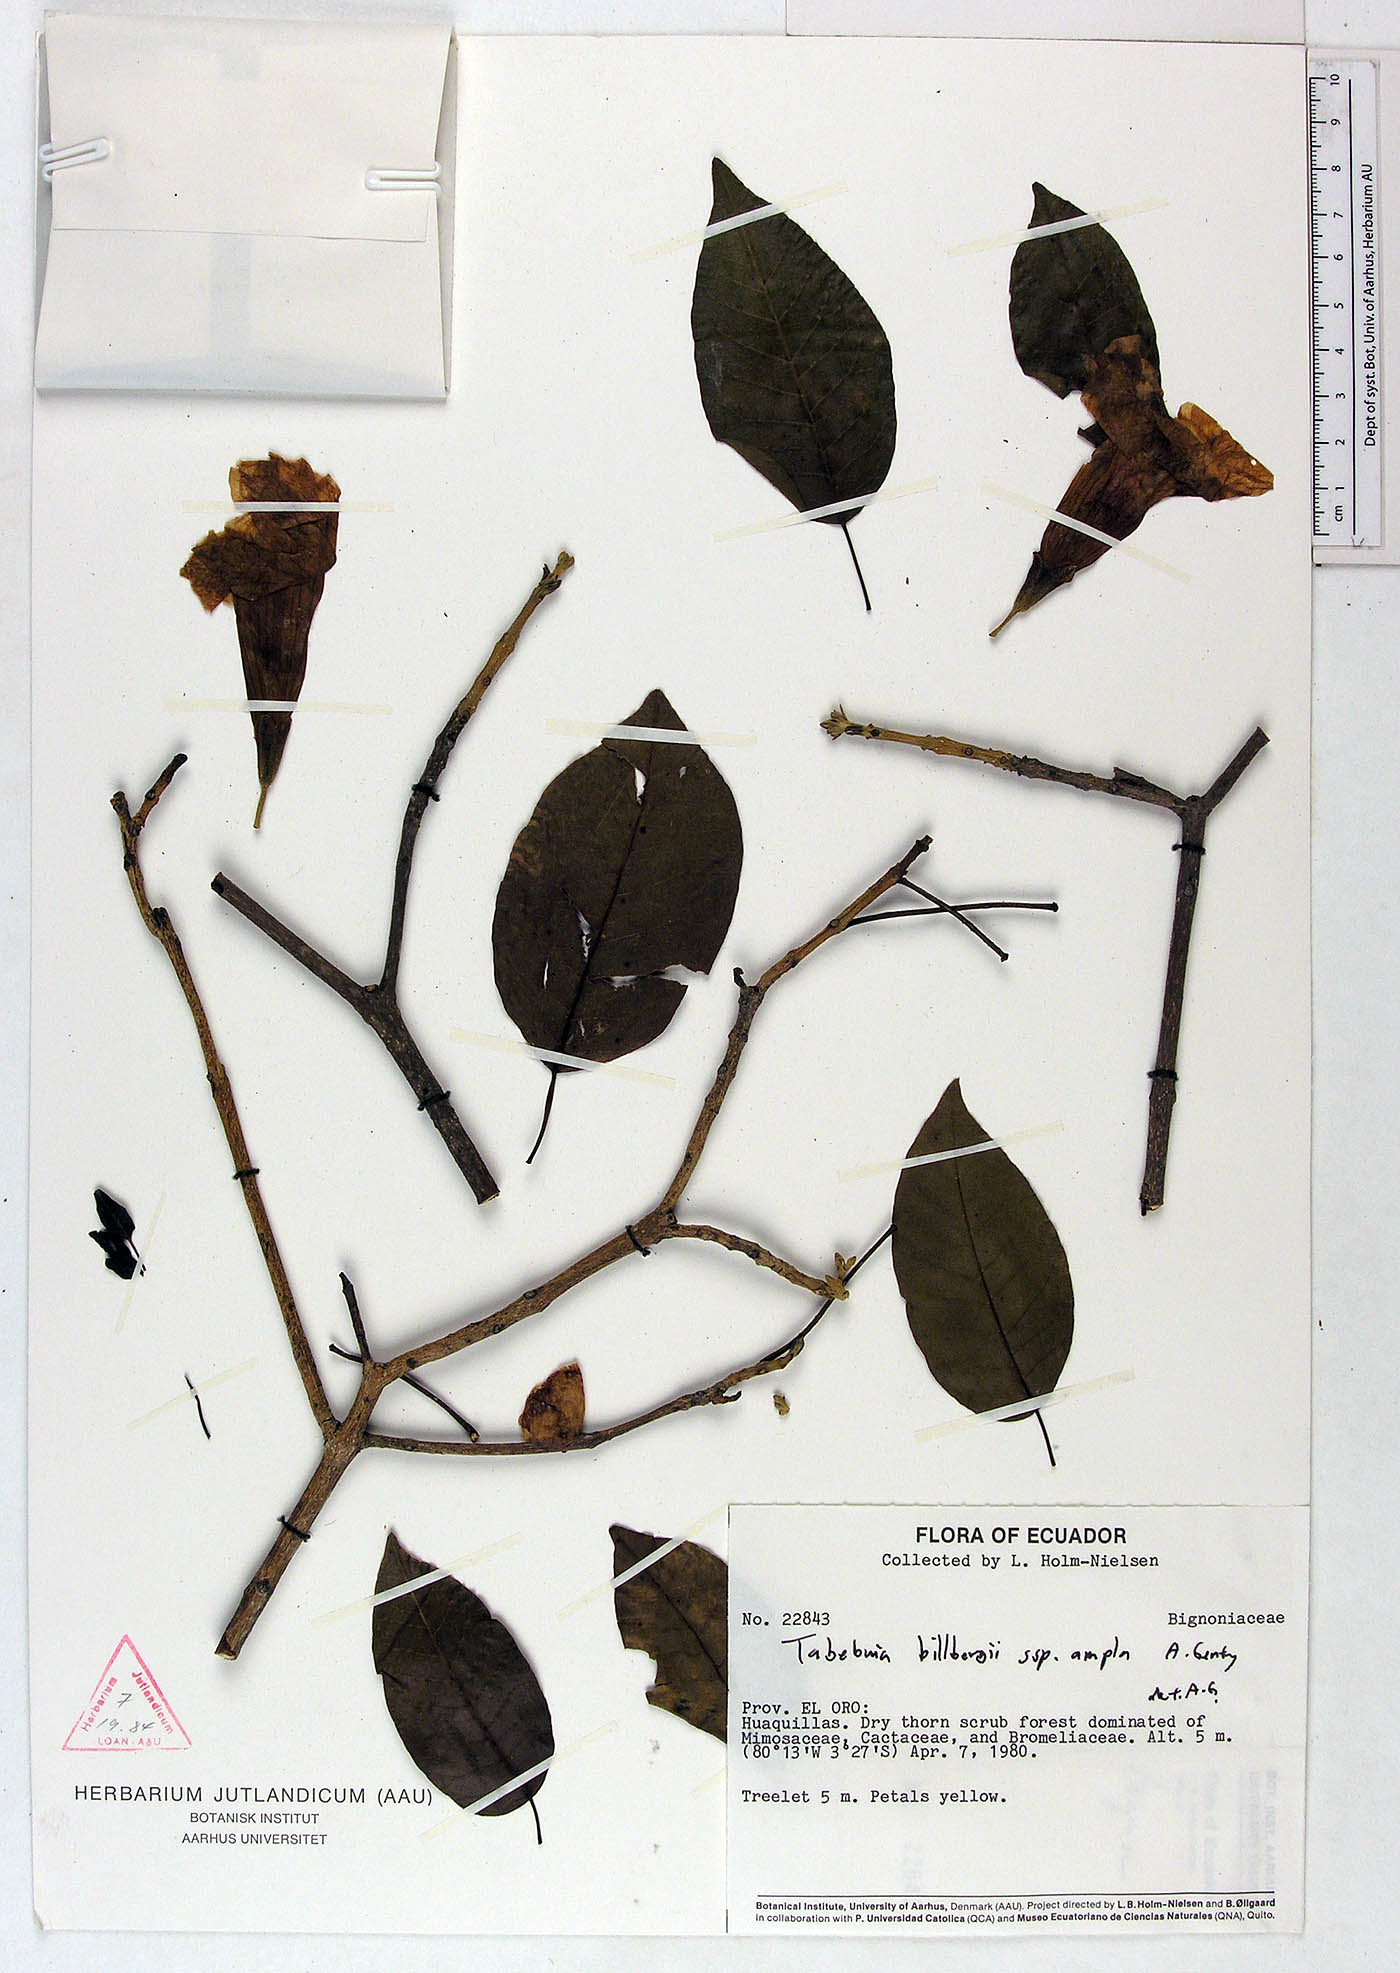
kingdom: Plantae
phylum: Tracheophyta
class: Magnoliopsida
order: Lamiales
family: Bignoniaceae
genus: Handroanthus
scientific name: Handroanthus billbergii
